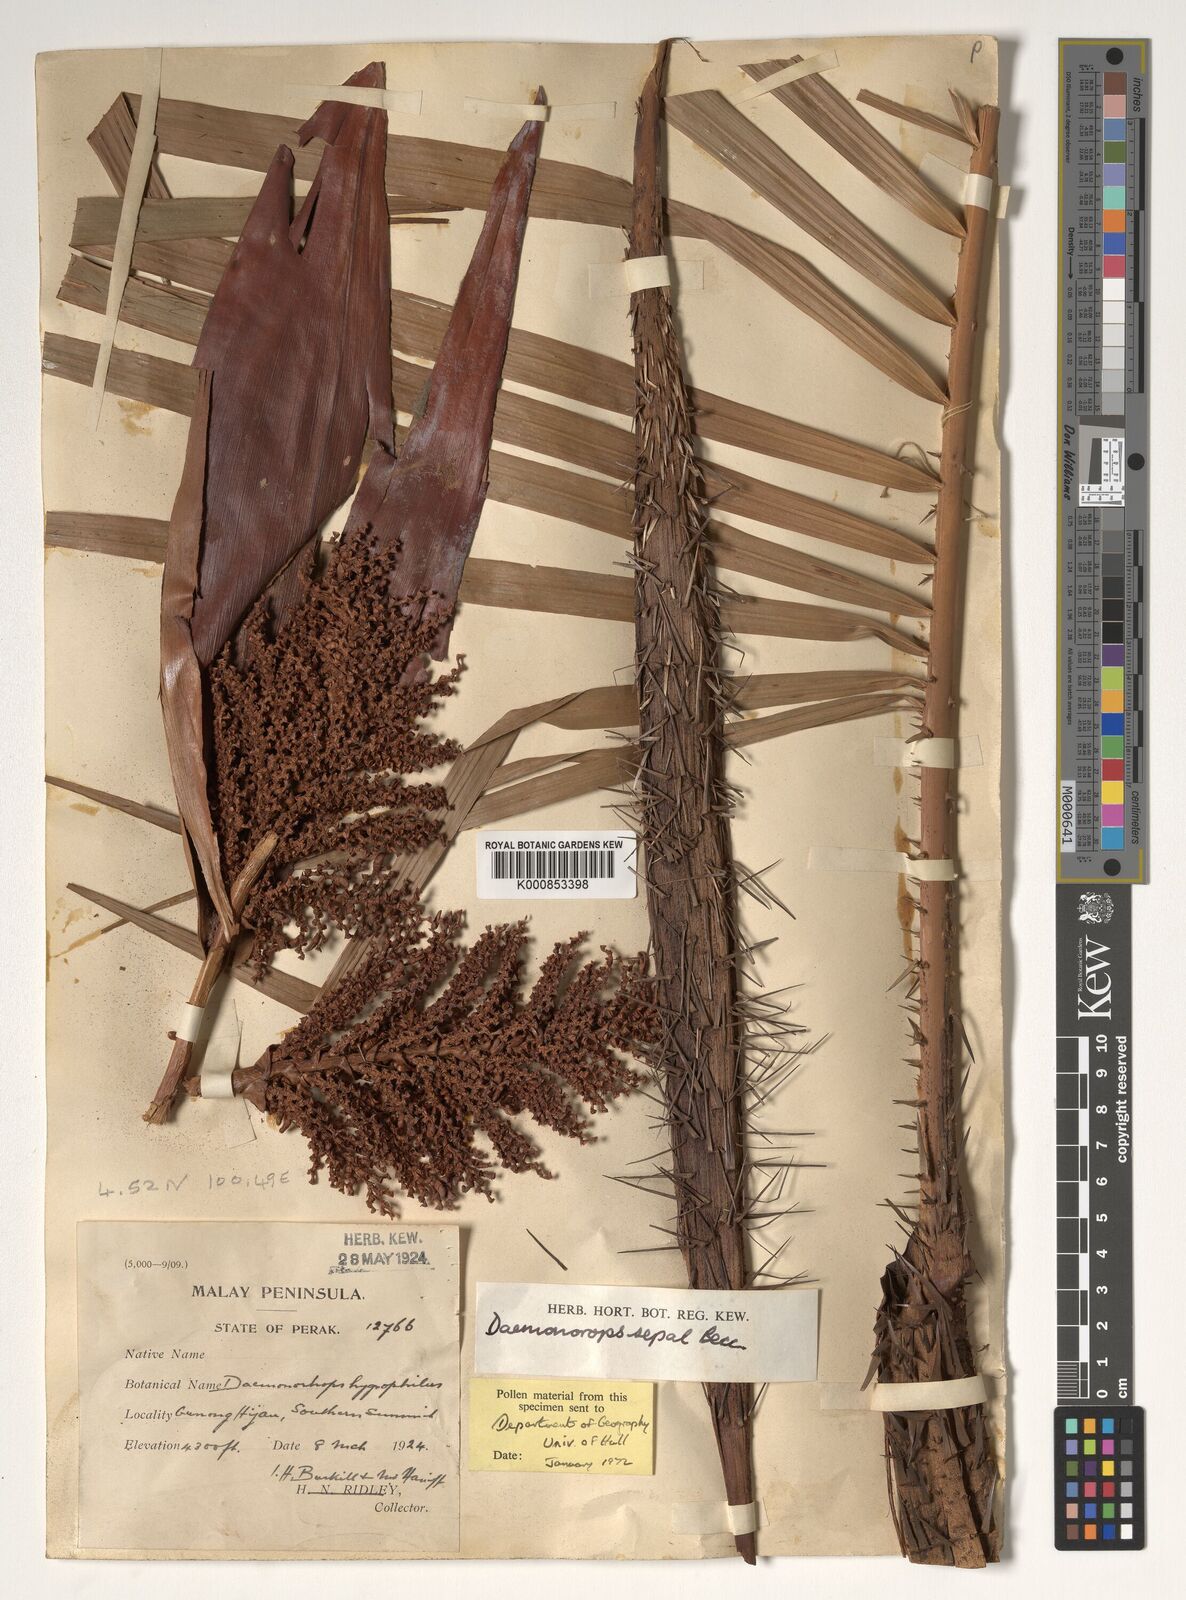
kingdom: Plantae
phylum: Tracheophyta
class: Liliopsida
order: Arecales
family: Arecaceae
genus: Calamus
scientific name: Calamus melanochaetes
